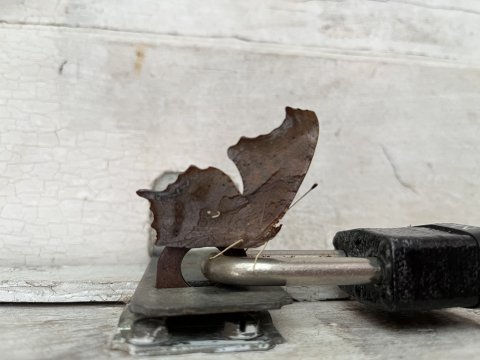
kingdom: Animalia
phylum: Arthropoda
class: Insecta
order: Lepidoptera
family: Nymphalidae
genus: Polygonia
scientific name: Polygonia interrogationis
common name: Question Mark
